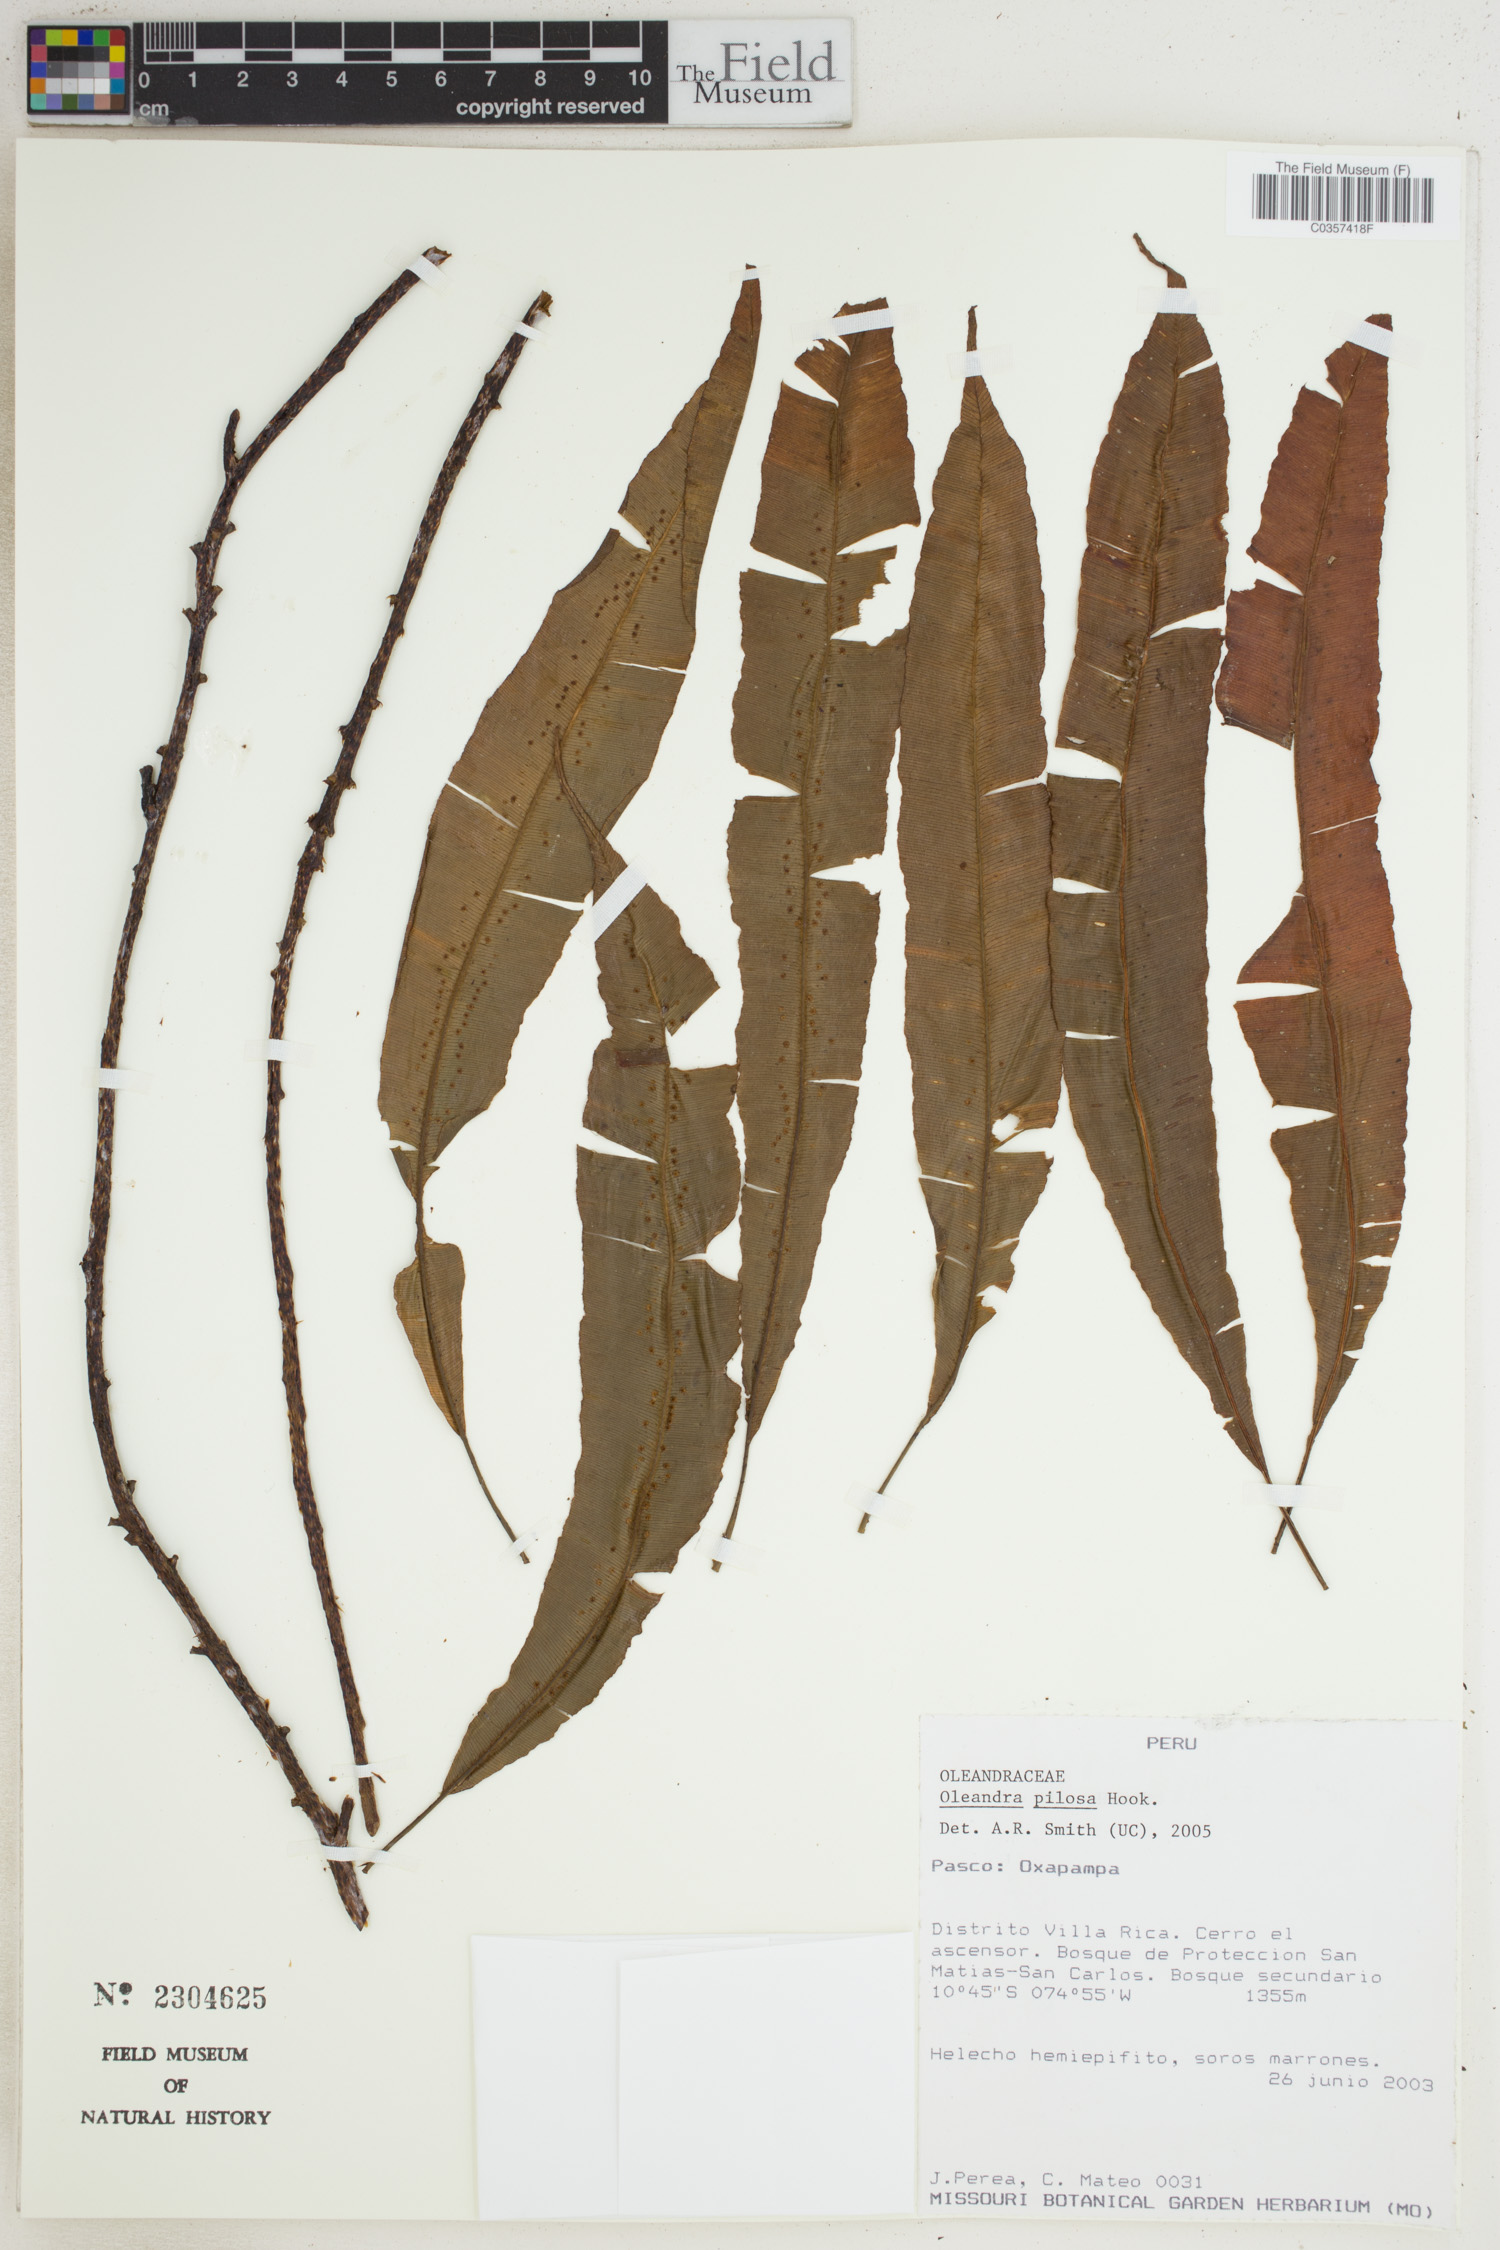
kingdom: Plantae
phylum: Tracheophyta
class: Polypodiopsida
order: Polypodiales
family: Oleandraceae
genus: Oleandra
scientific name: Oleandra pilosa
